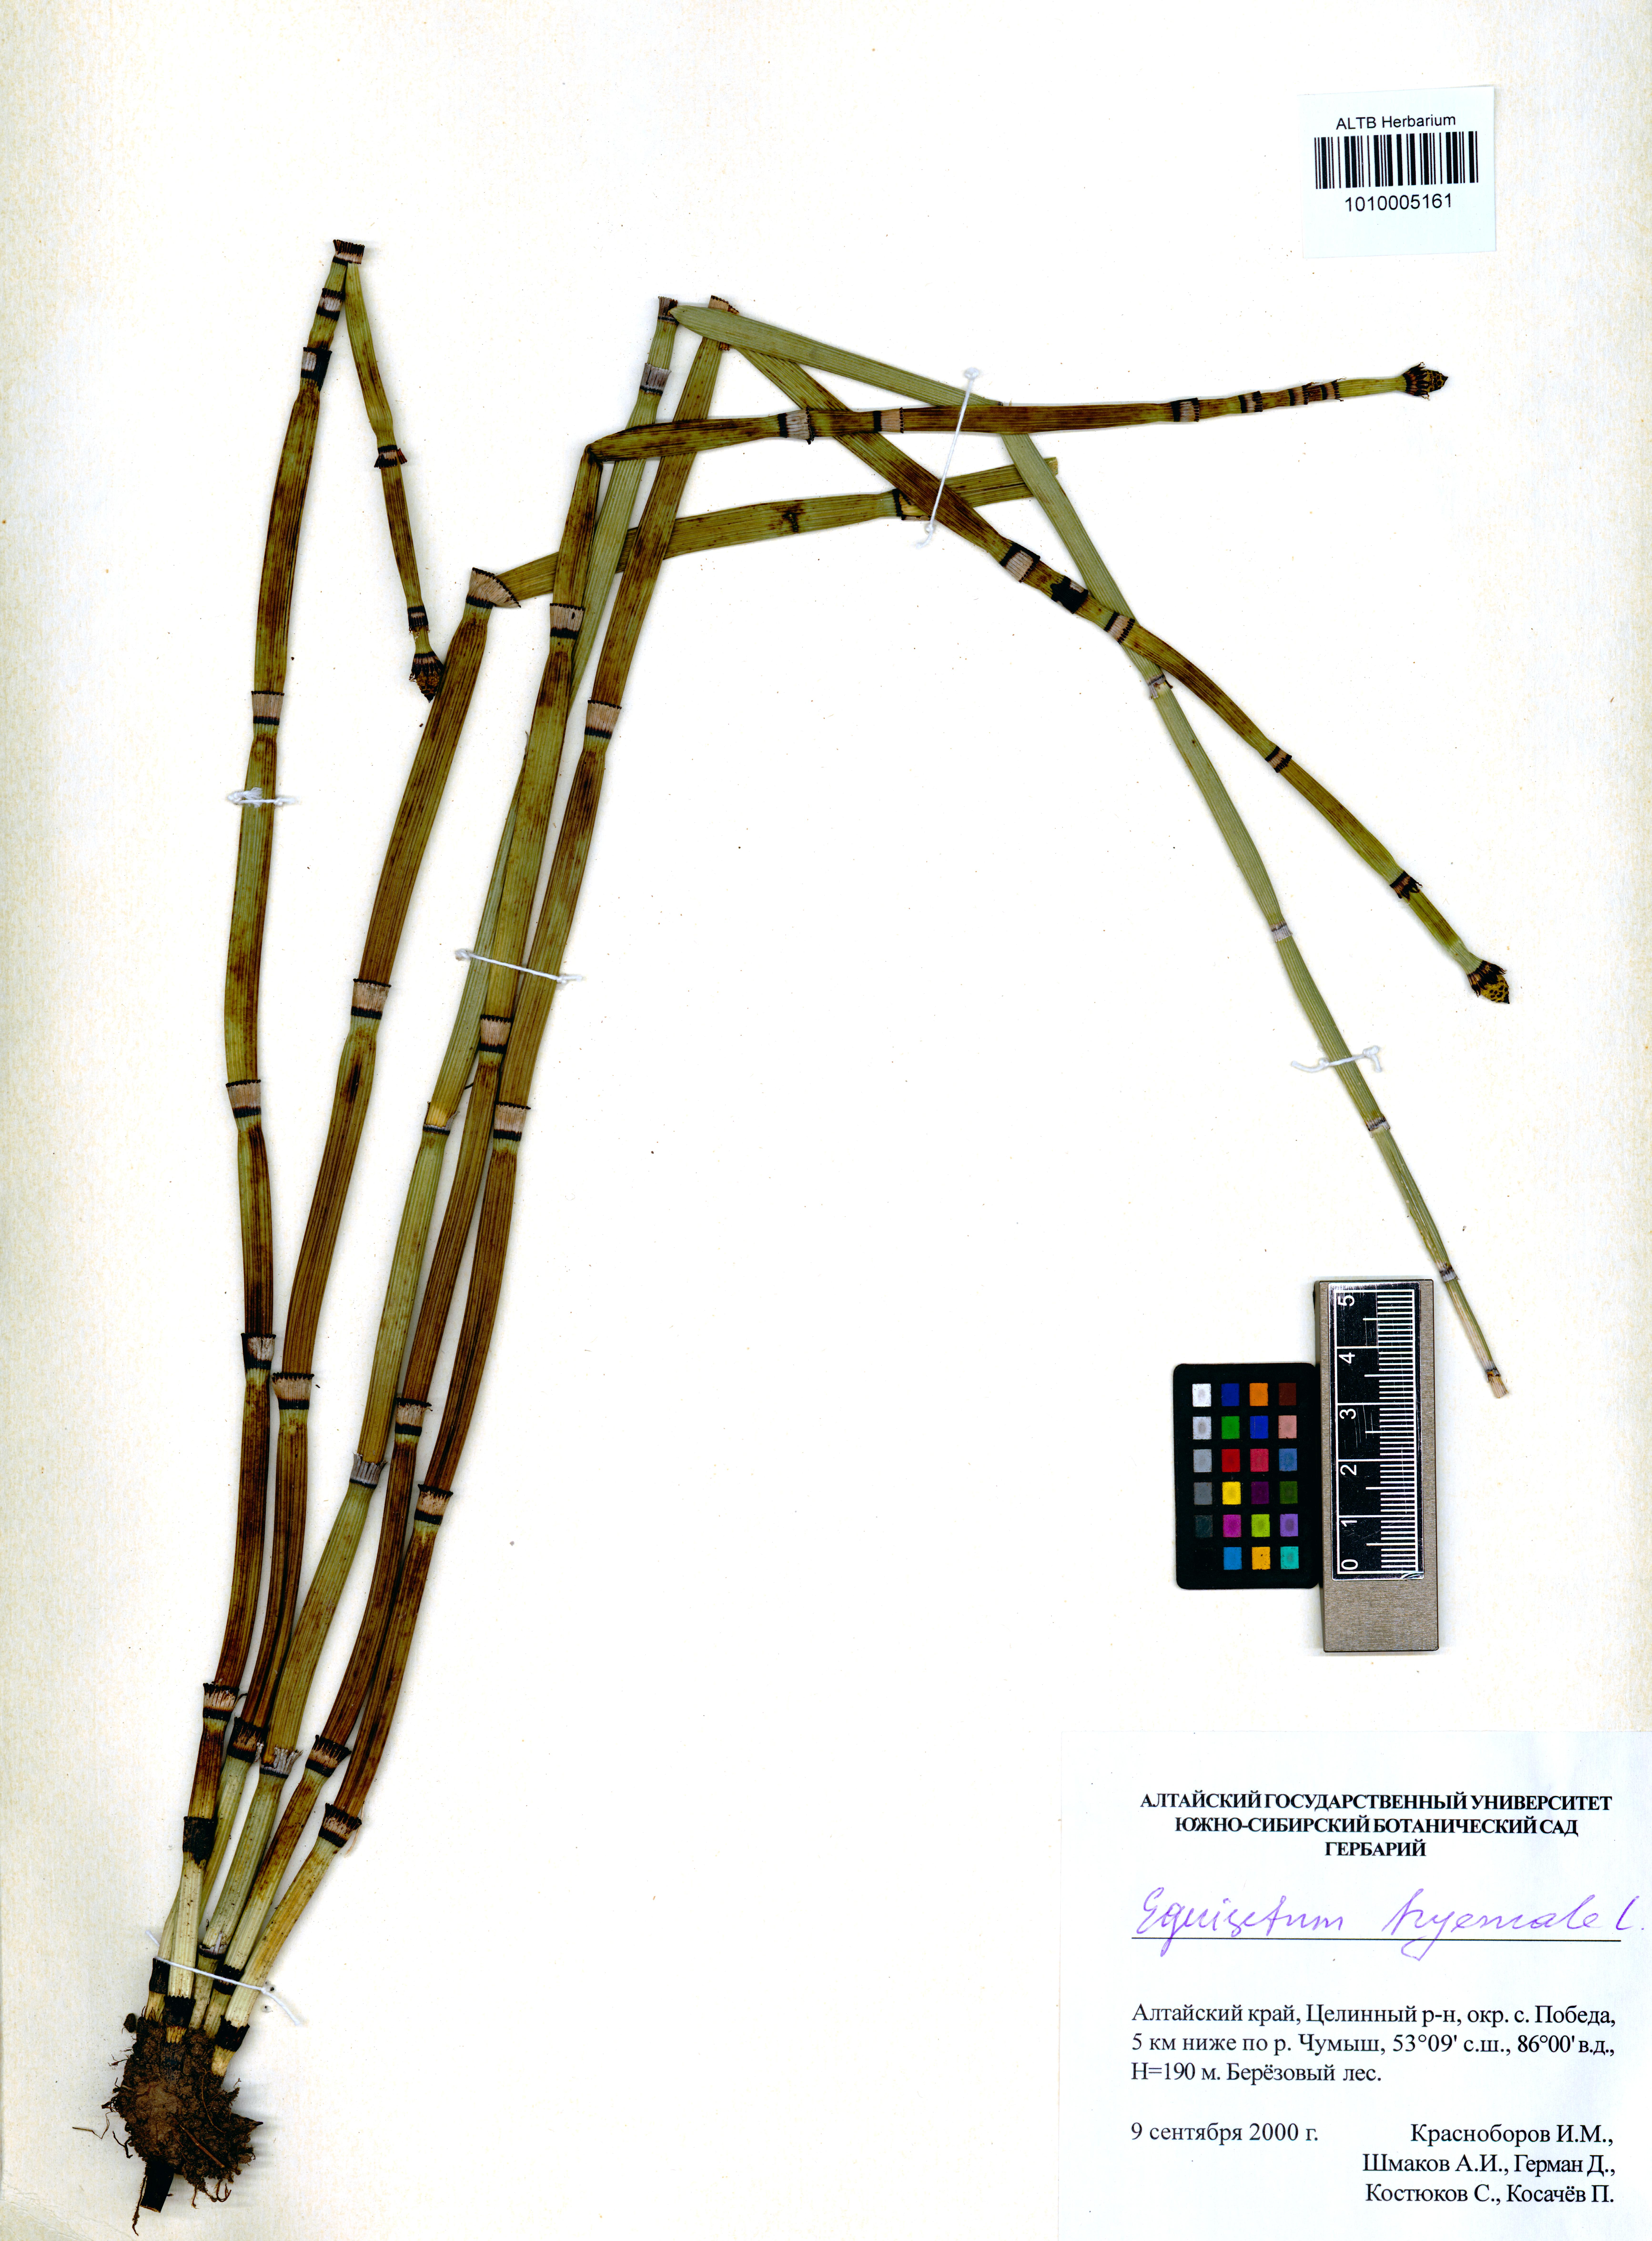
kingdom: Plantae
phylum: Tracheophyta
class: Polypodiopsida
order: Equisetales
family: Equisetaceae
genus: Equisetum
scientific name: Equisetum hyemale
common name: Rough horsetail
